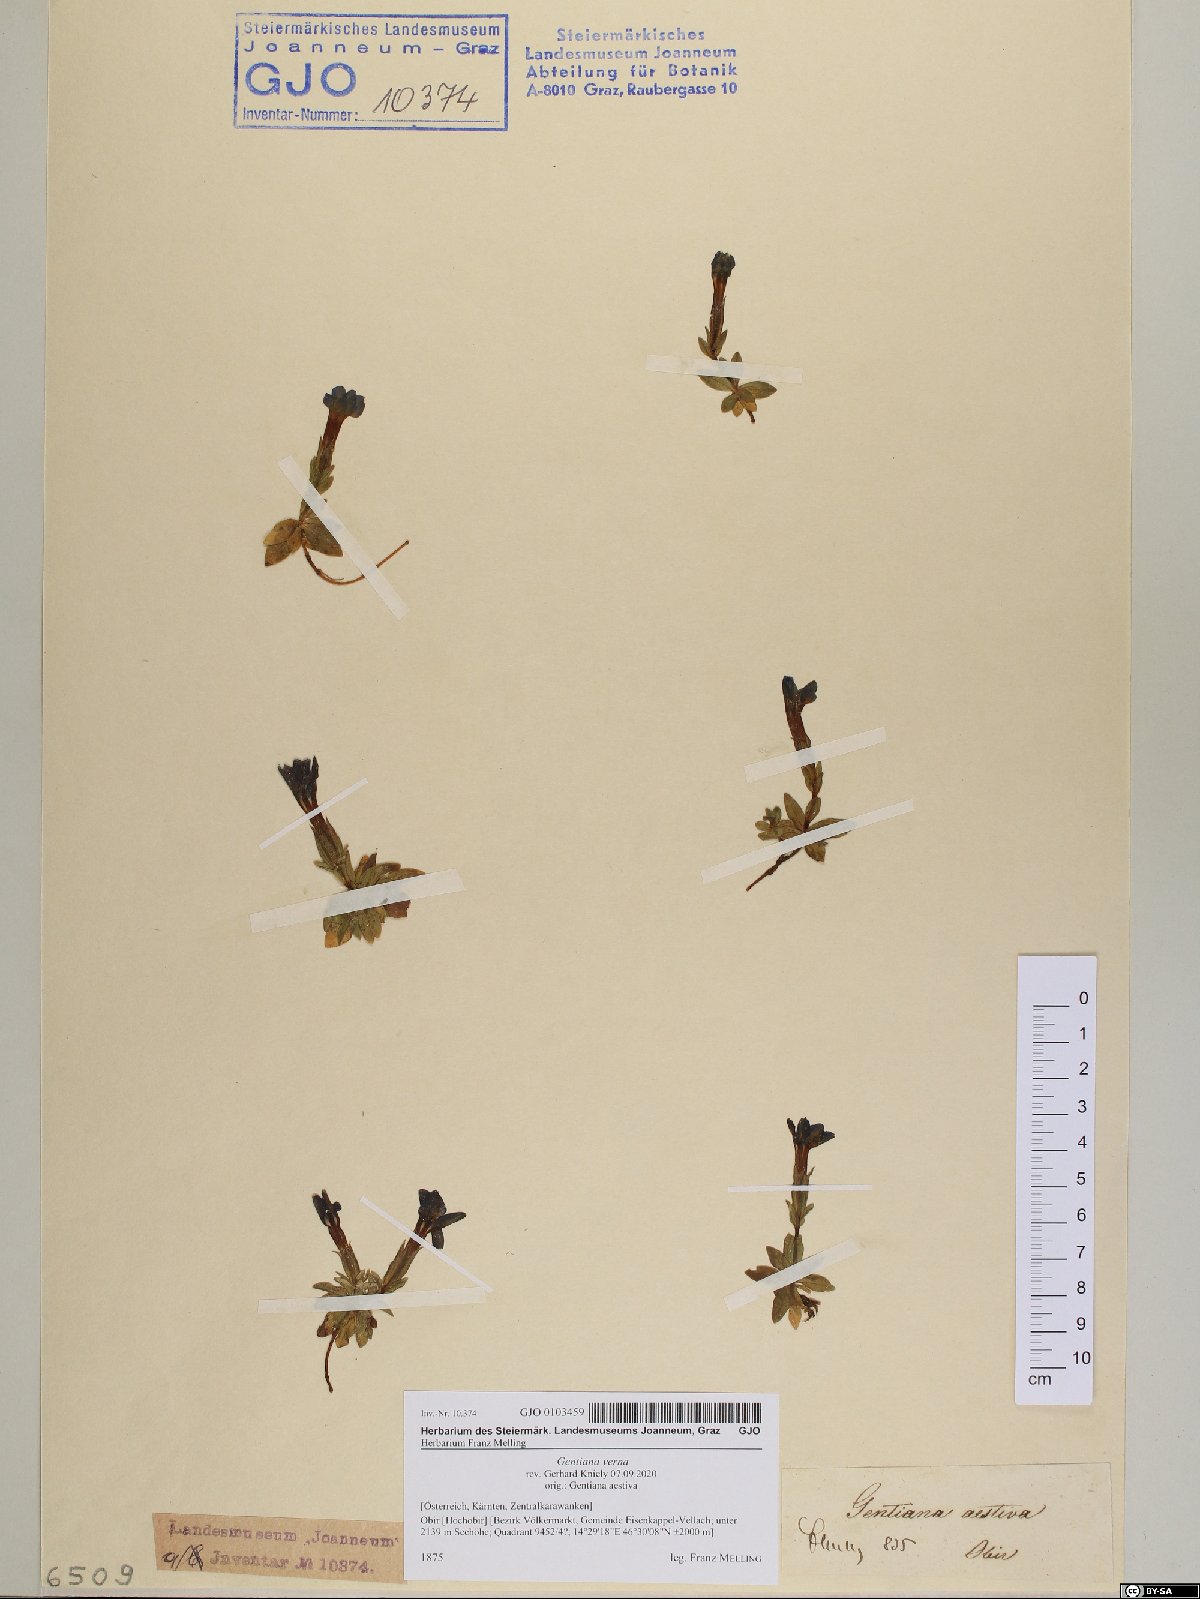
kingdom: Plantae
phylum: Tracheophyta
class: Magnoliopsida
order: Gentianales
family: Gentianaceae
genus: Gentiana
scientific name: Gentiana verna
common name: Spring gentian
